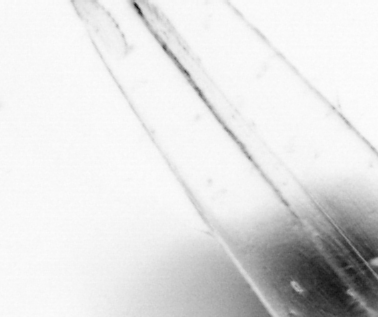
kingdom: Animalia
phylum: Chaetognatha
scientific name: Chaetognatha
